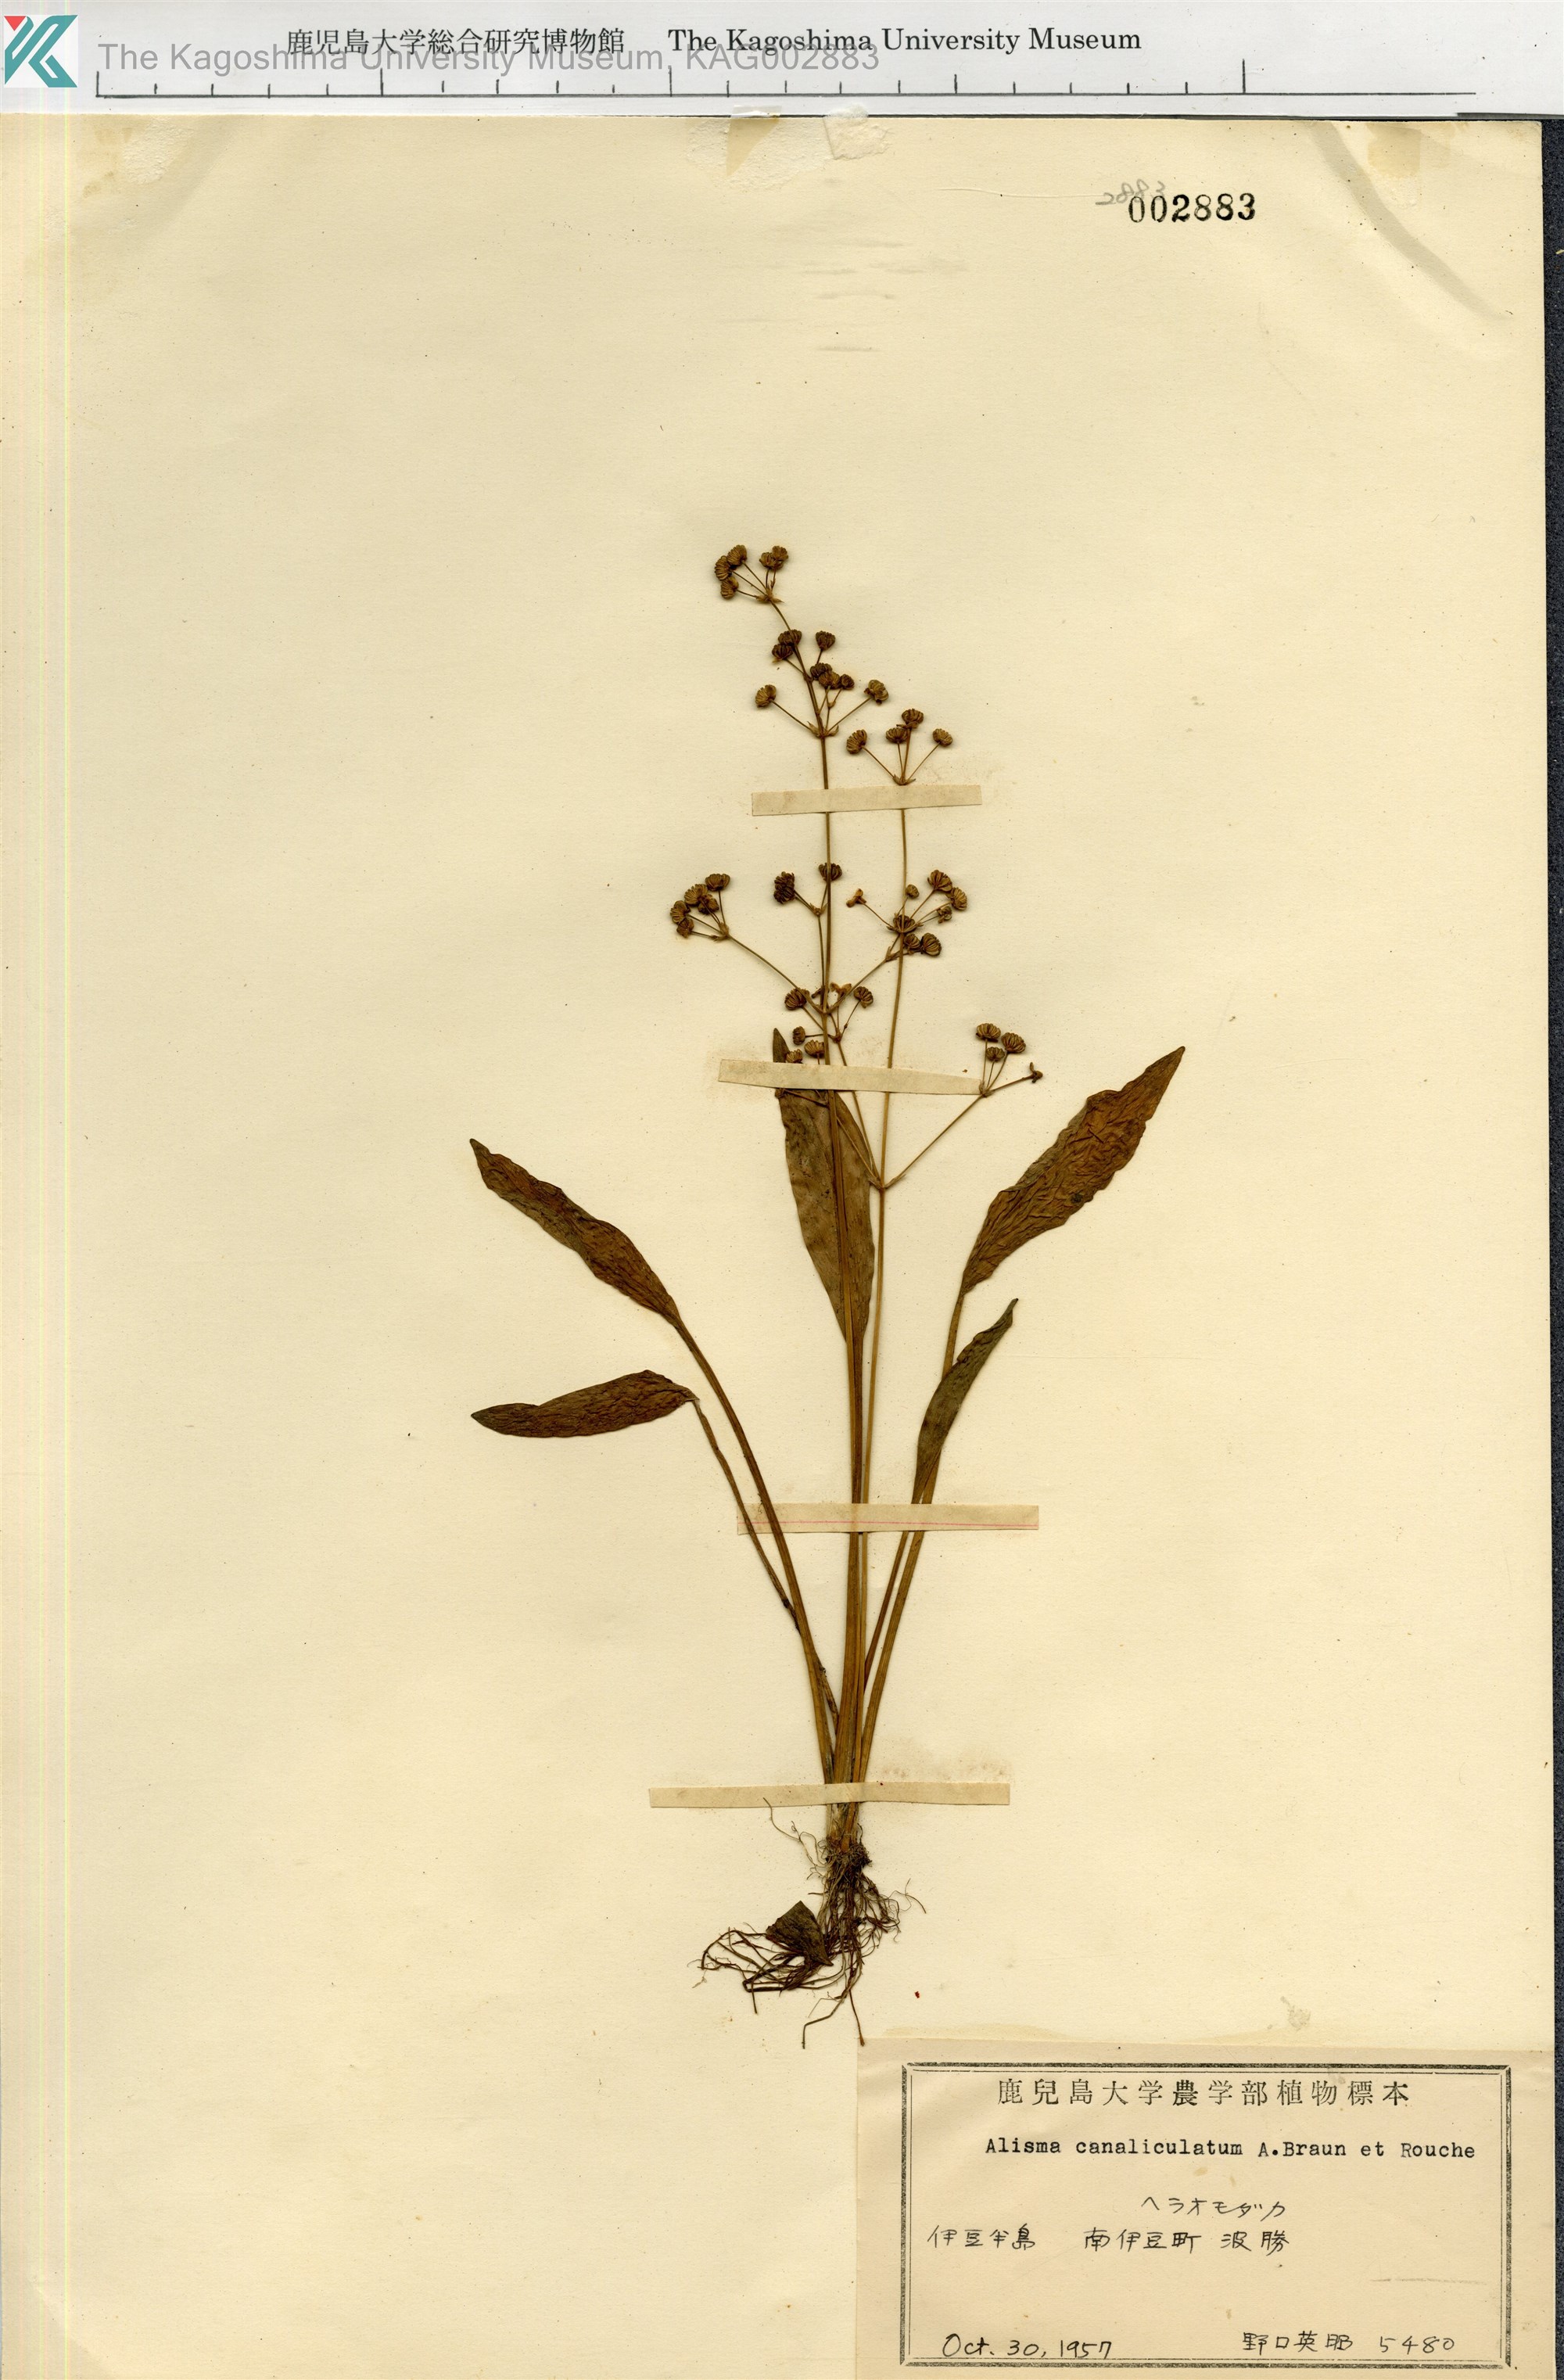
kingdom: Plantae
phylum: Tracheophyta
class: Liliopsida
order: Alismatales
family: Alismataceae
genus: Alisma
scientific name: Alisma canaliculatum
